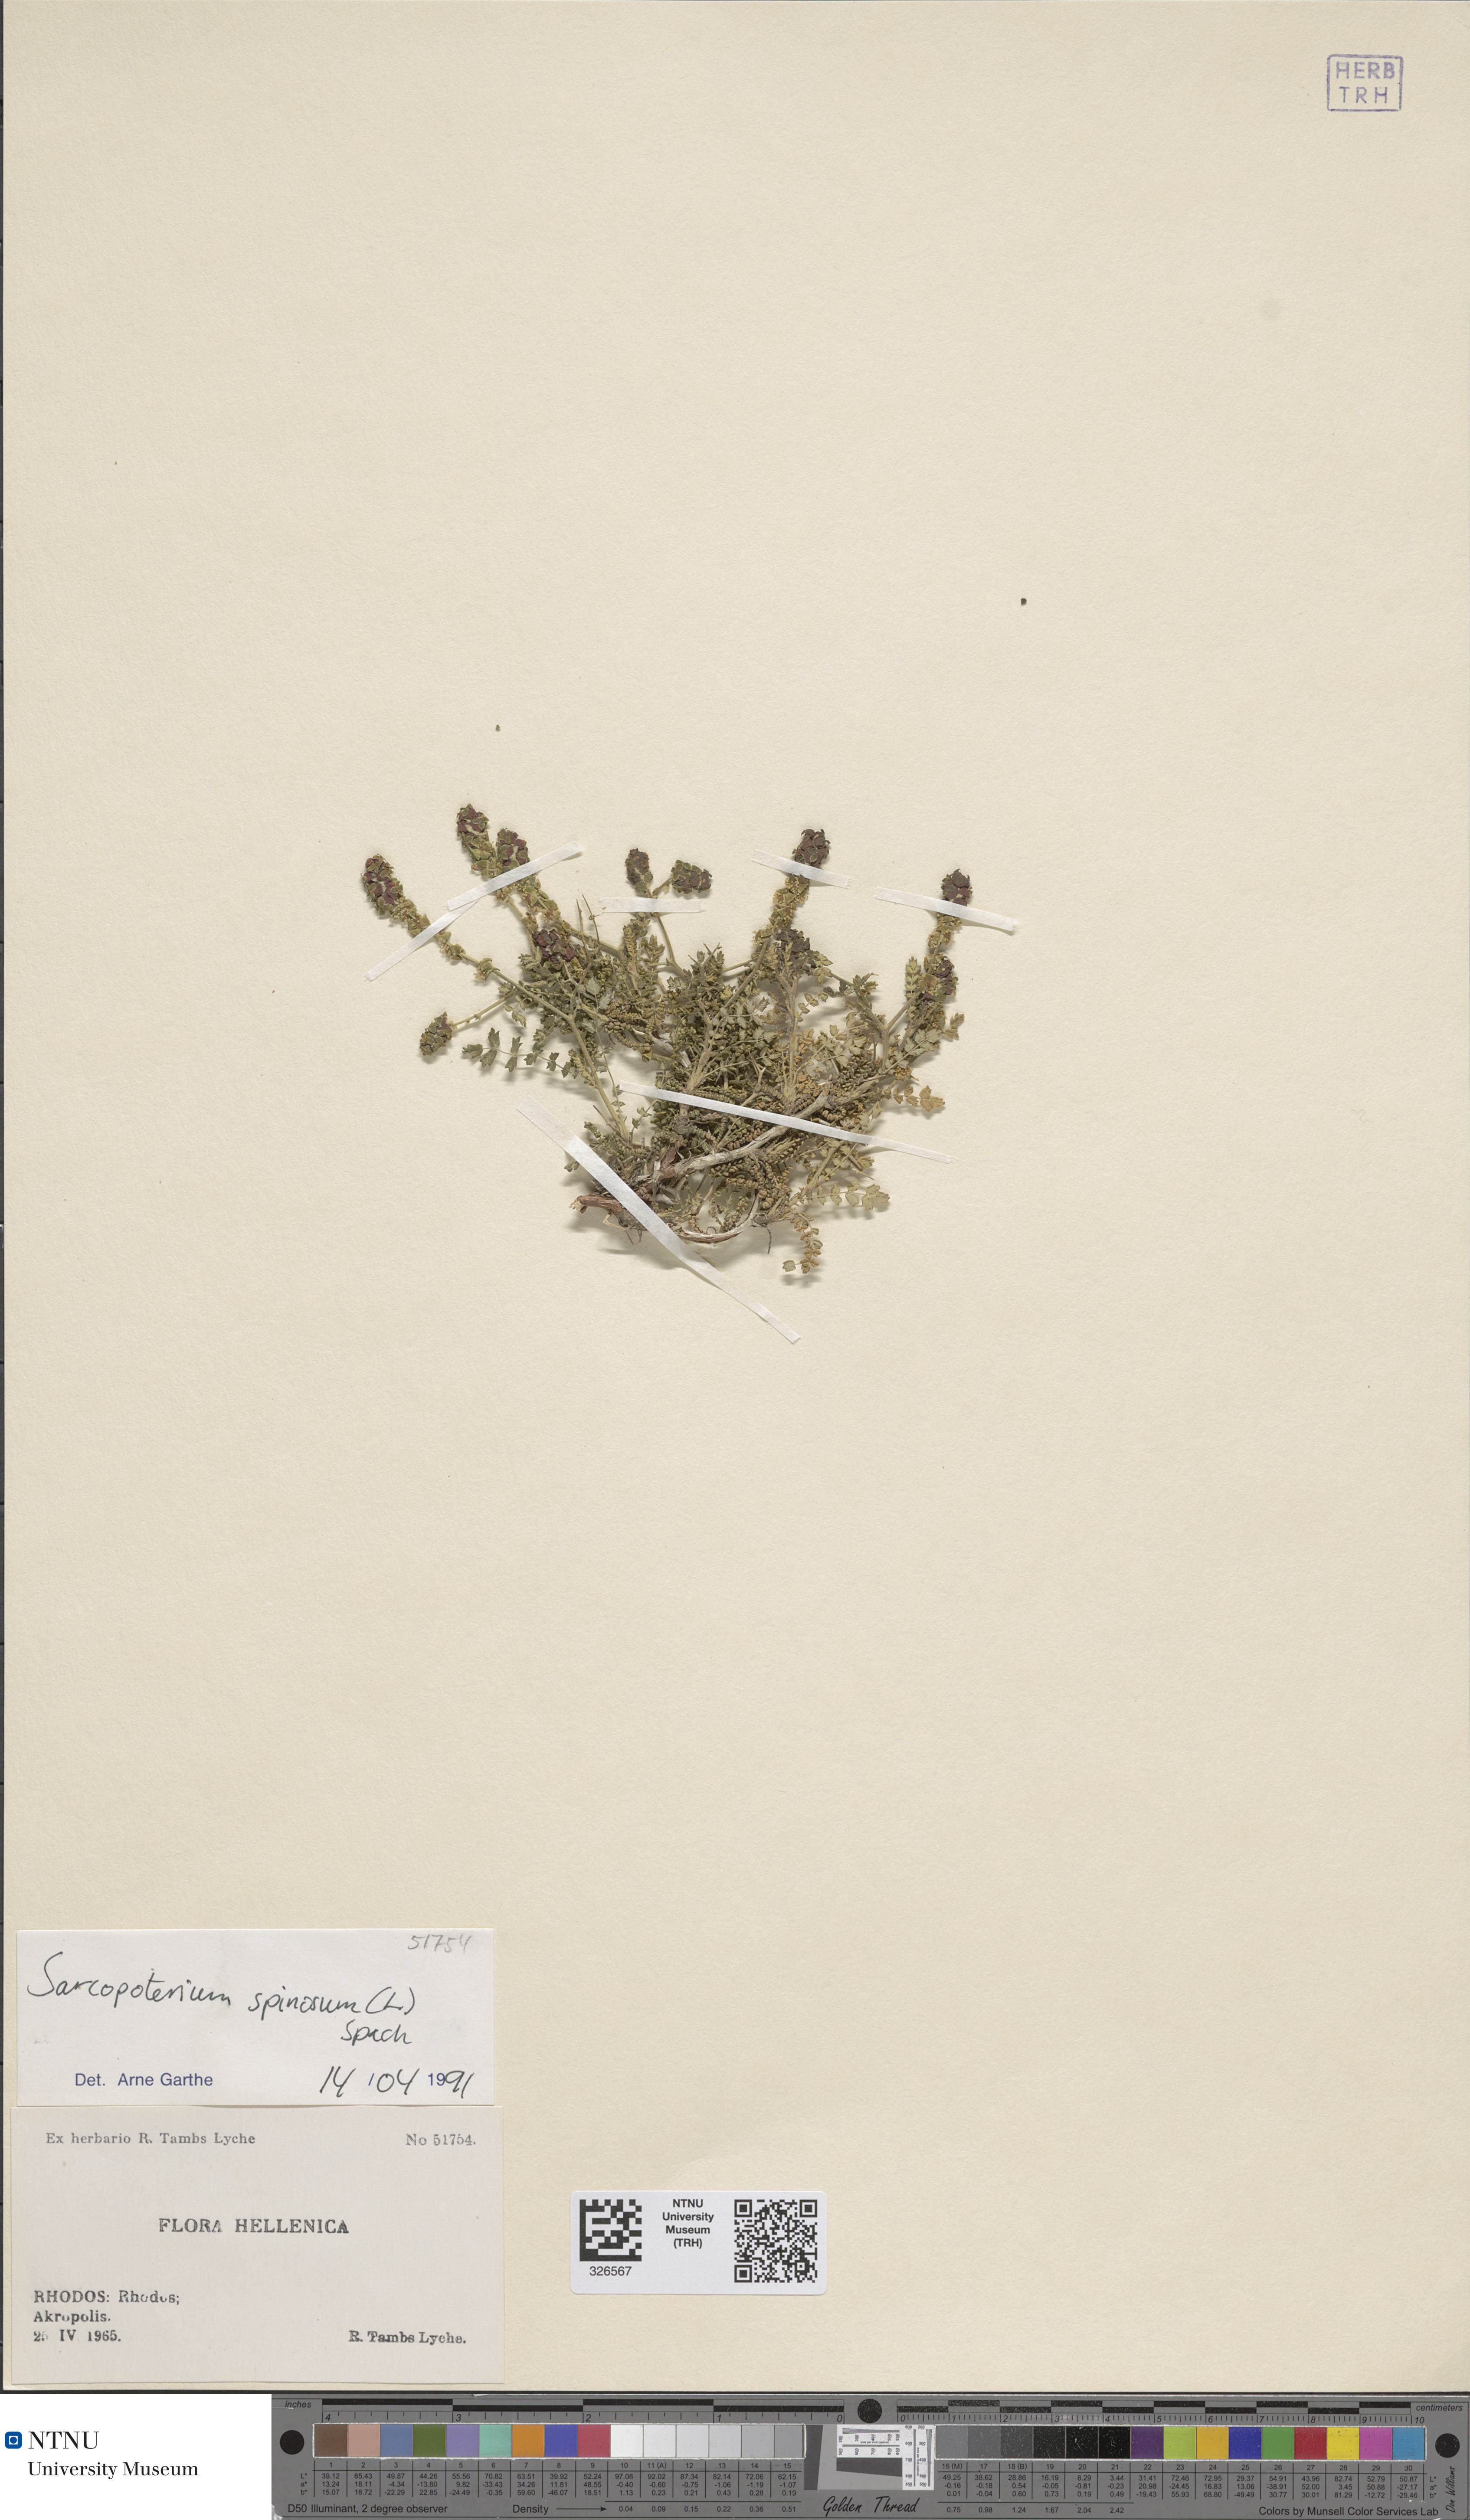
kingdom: Plantae
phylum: Tracheophyta
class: Magnoliopsida
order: Rosales
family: Rosaceae
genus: Sarcopoterium
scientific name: Sarcopoterium spinosum
